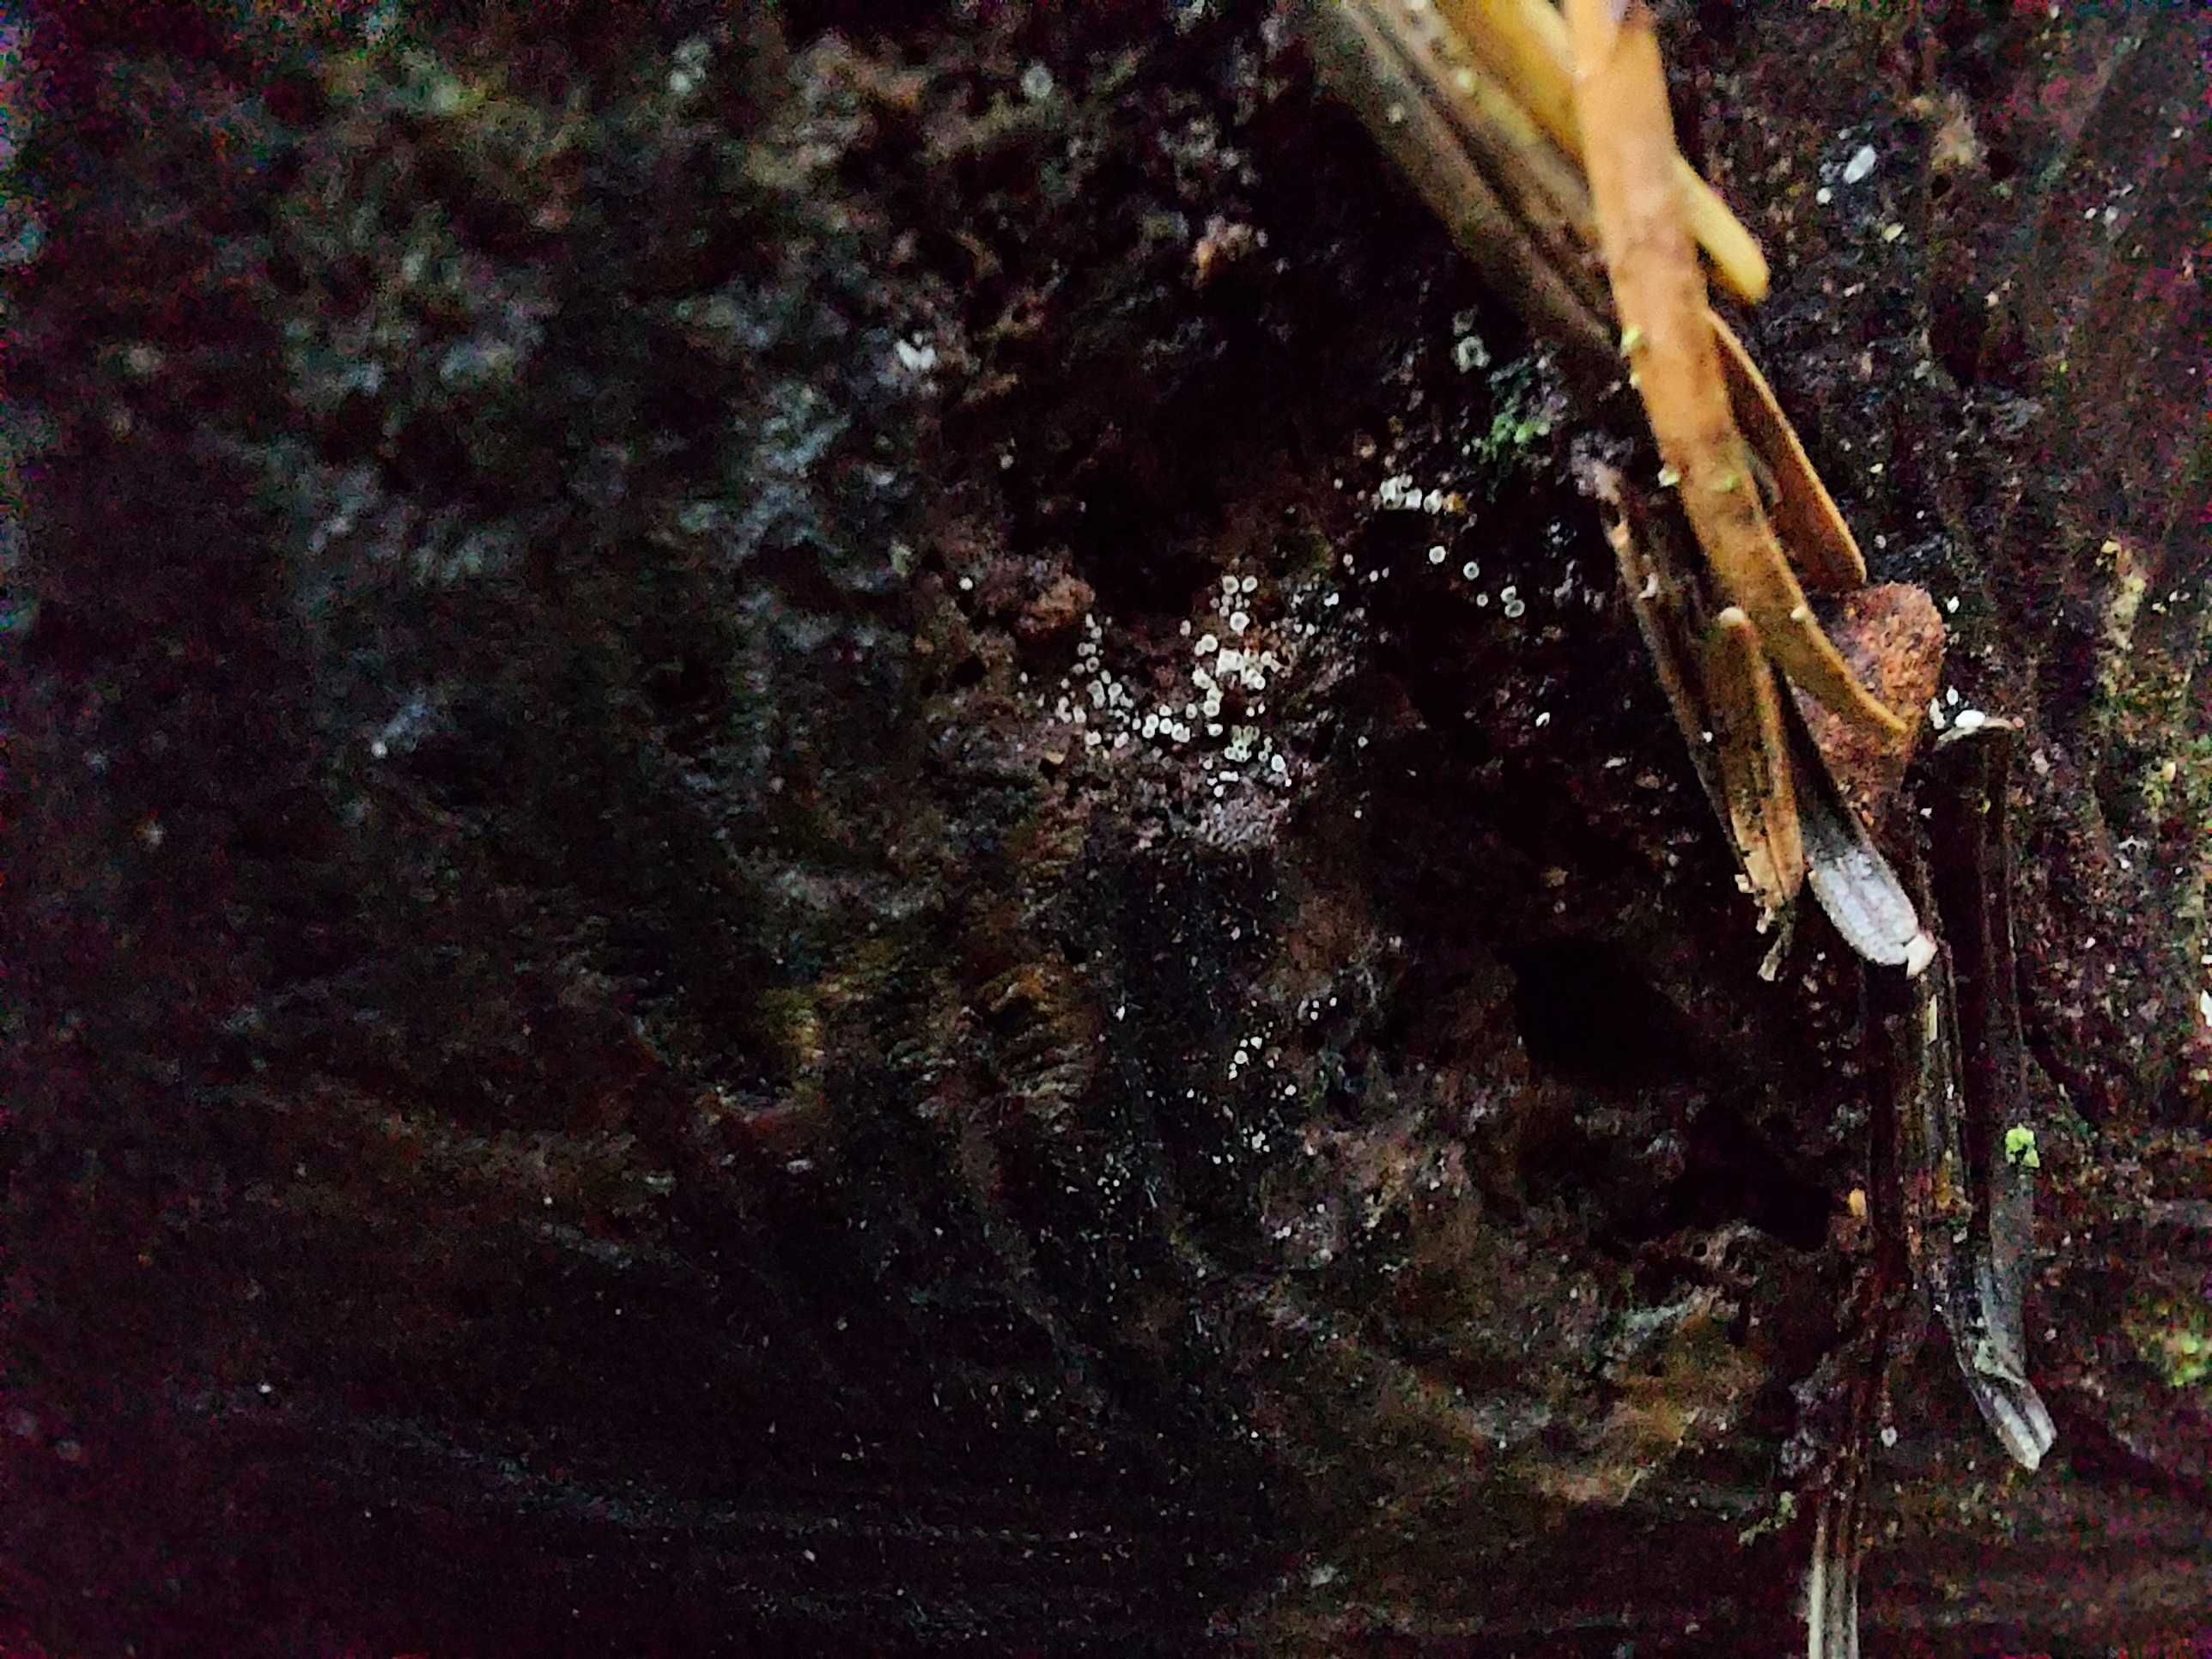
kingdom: Fungi
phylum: Ascomycota
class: Leotiomycetes
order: Helotiales
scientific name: Helotiales
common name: stilkskiveordenen
